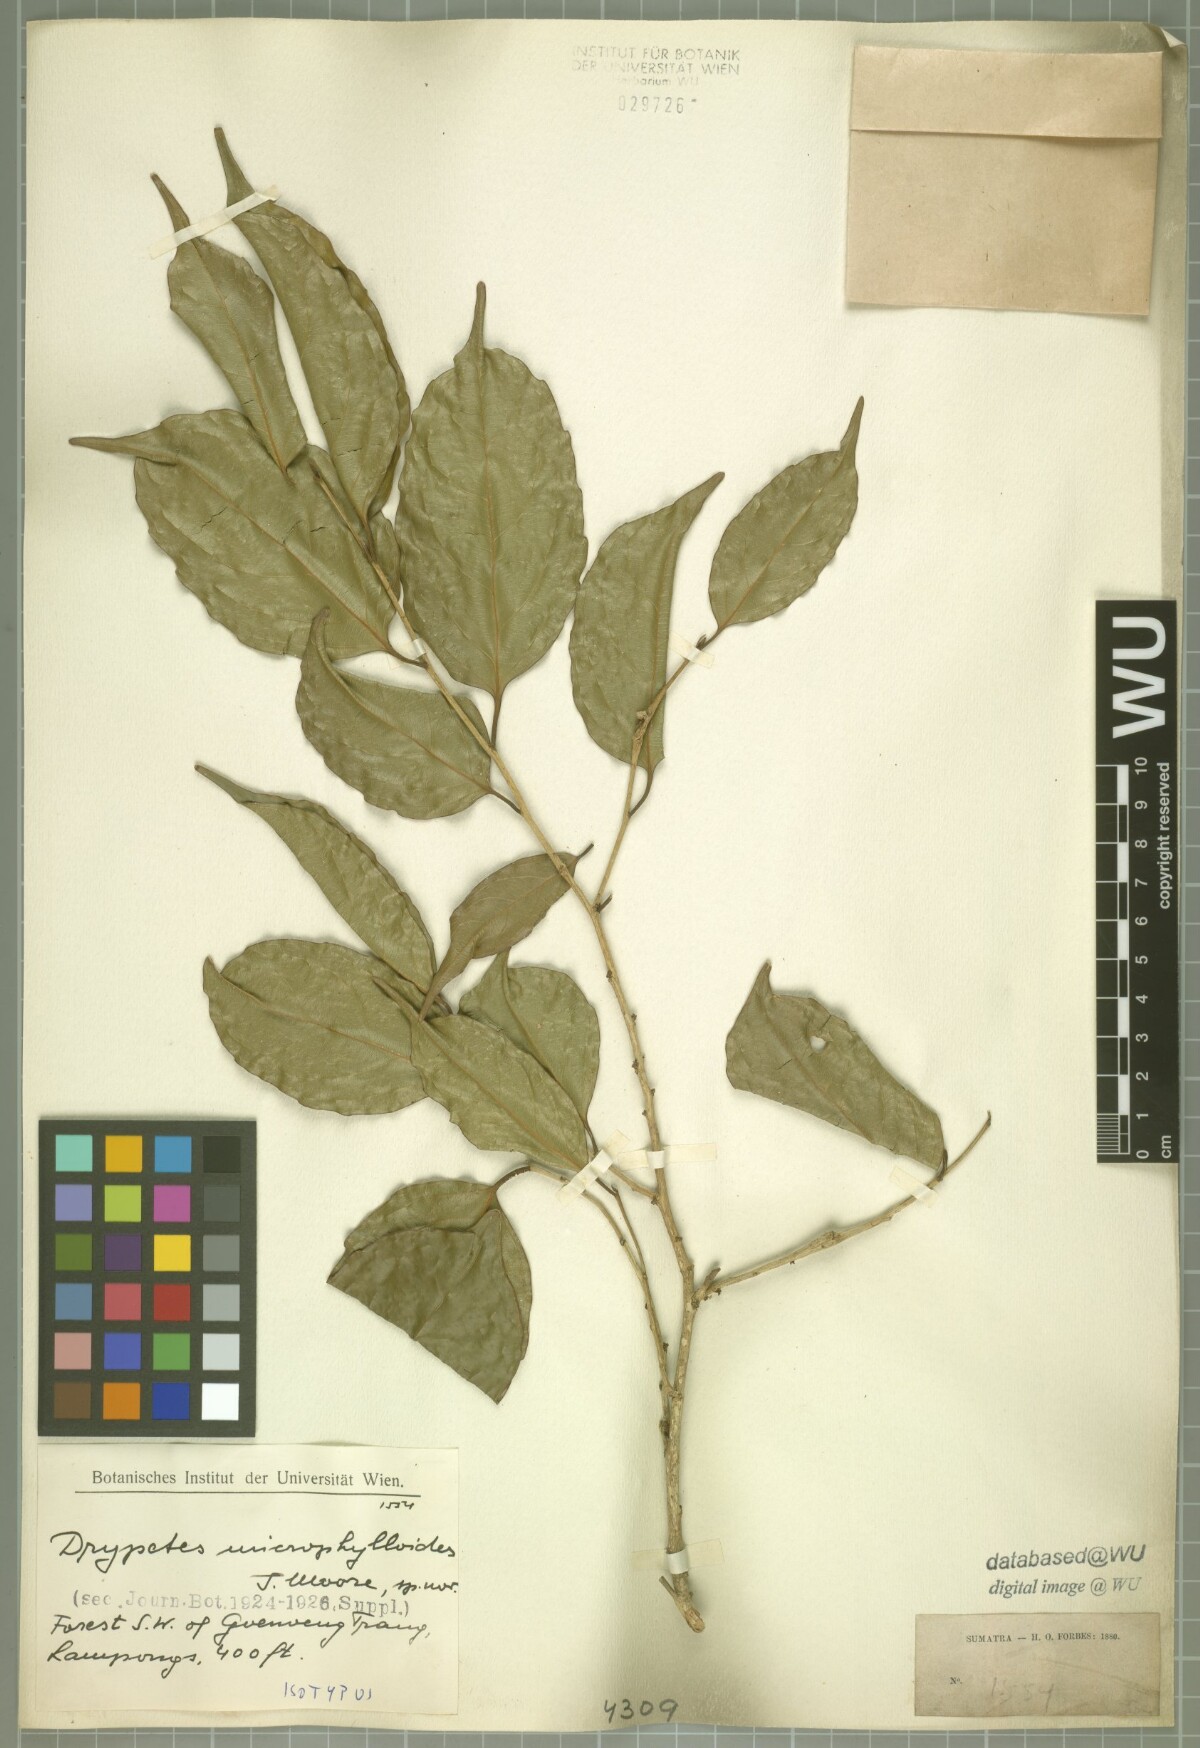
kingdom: Plantae
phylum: Tracheophyta
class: Magnoliopsida
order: Malpighiales
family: Putranjivaceae
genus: Drypetes
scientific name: Drypetes microphylloides
